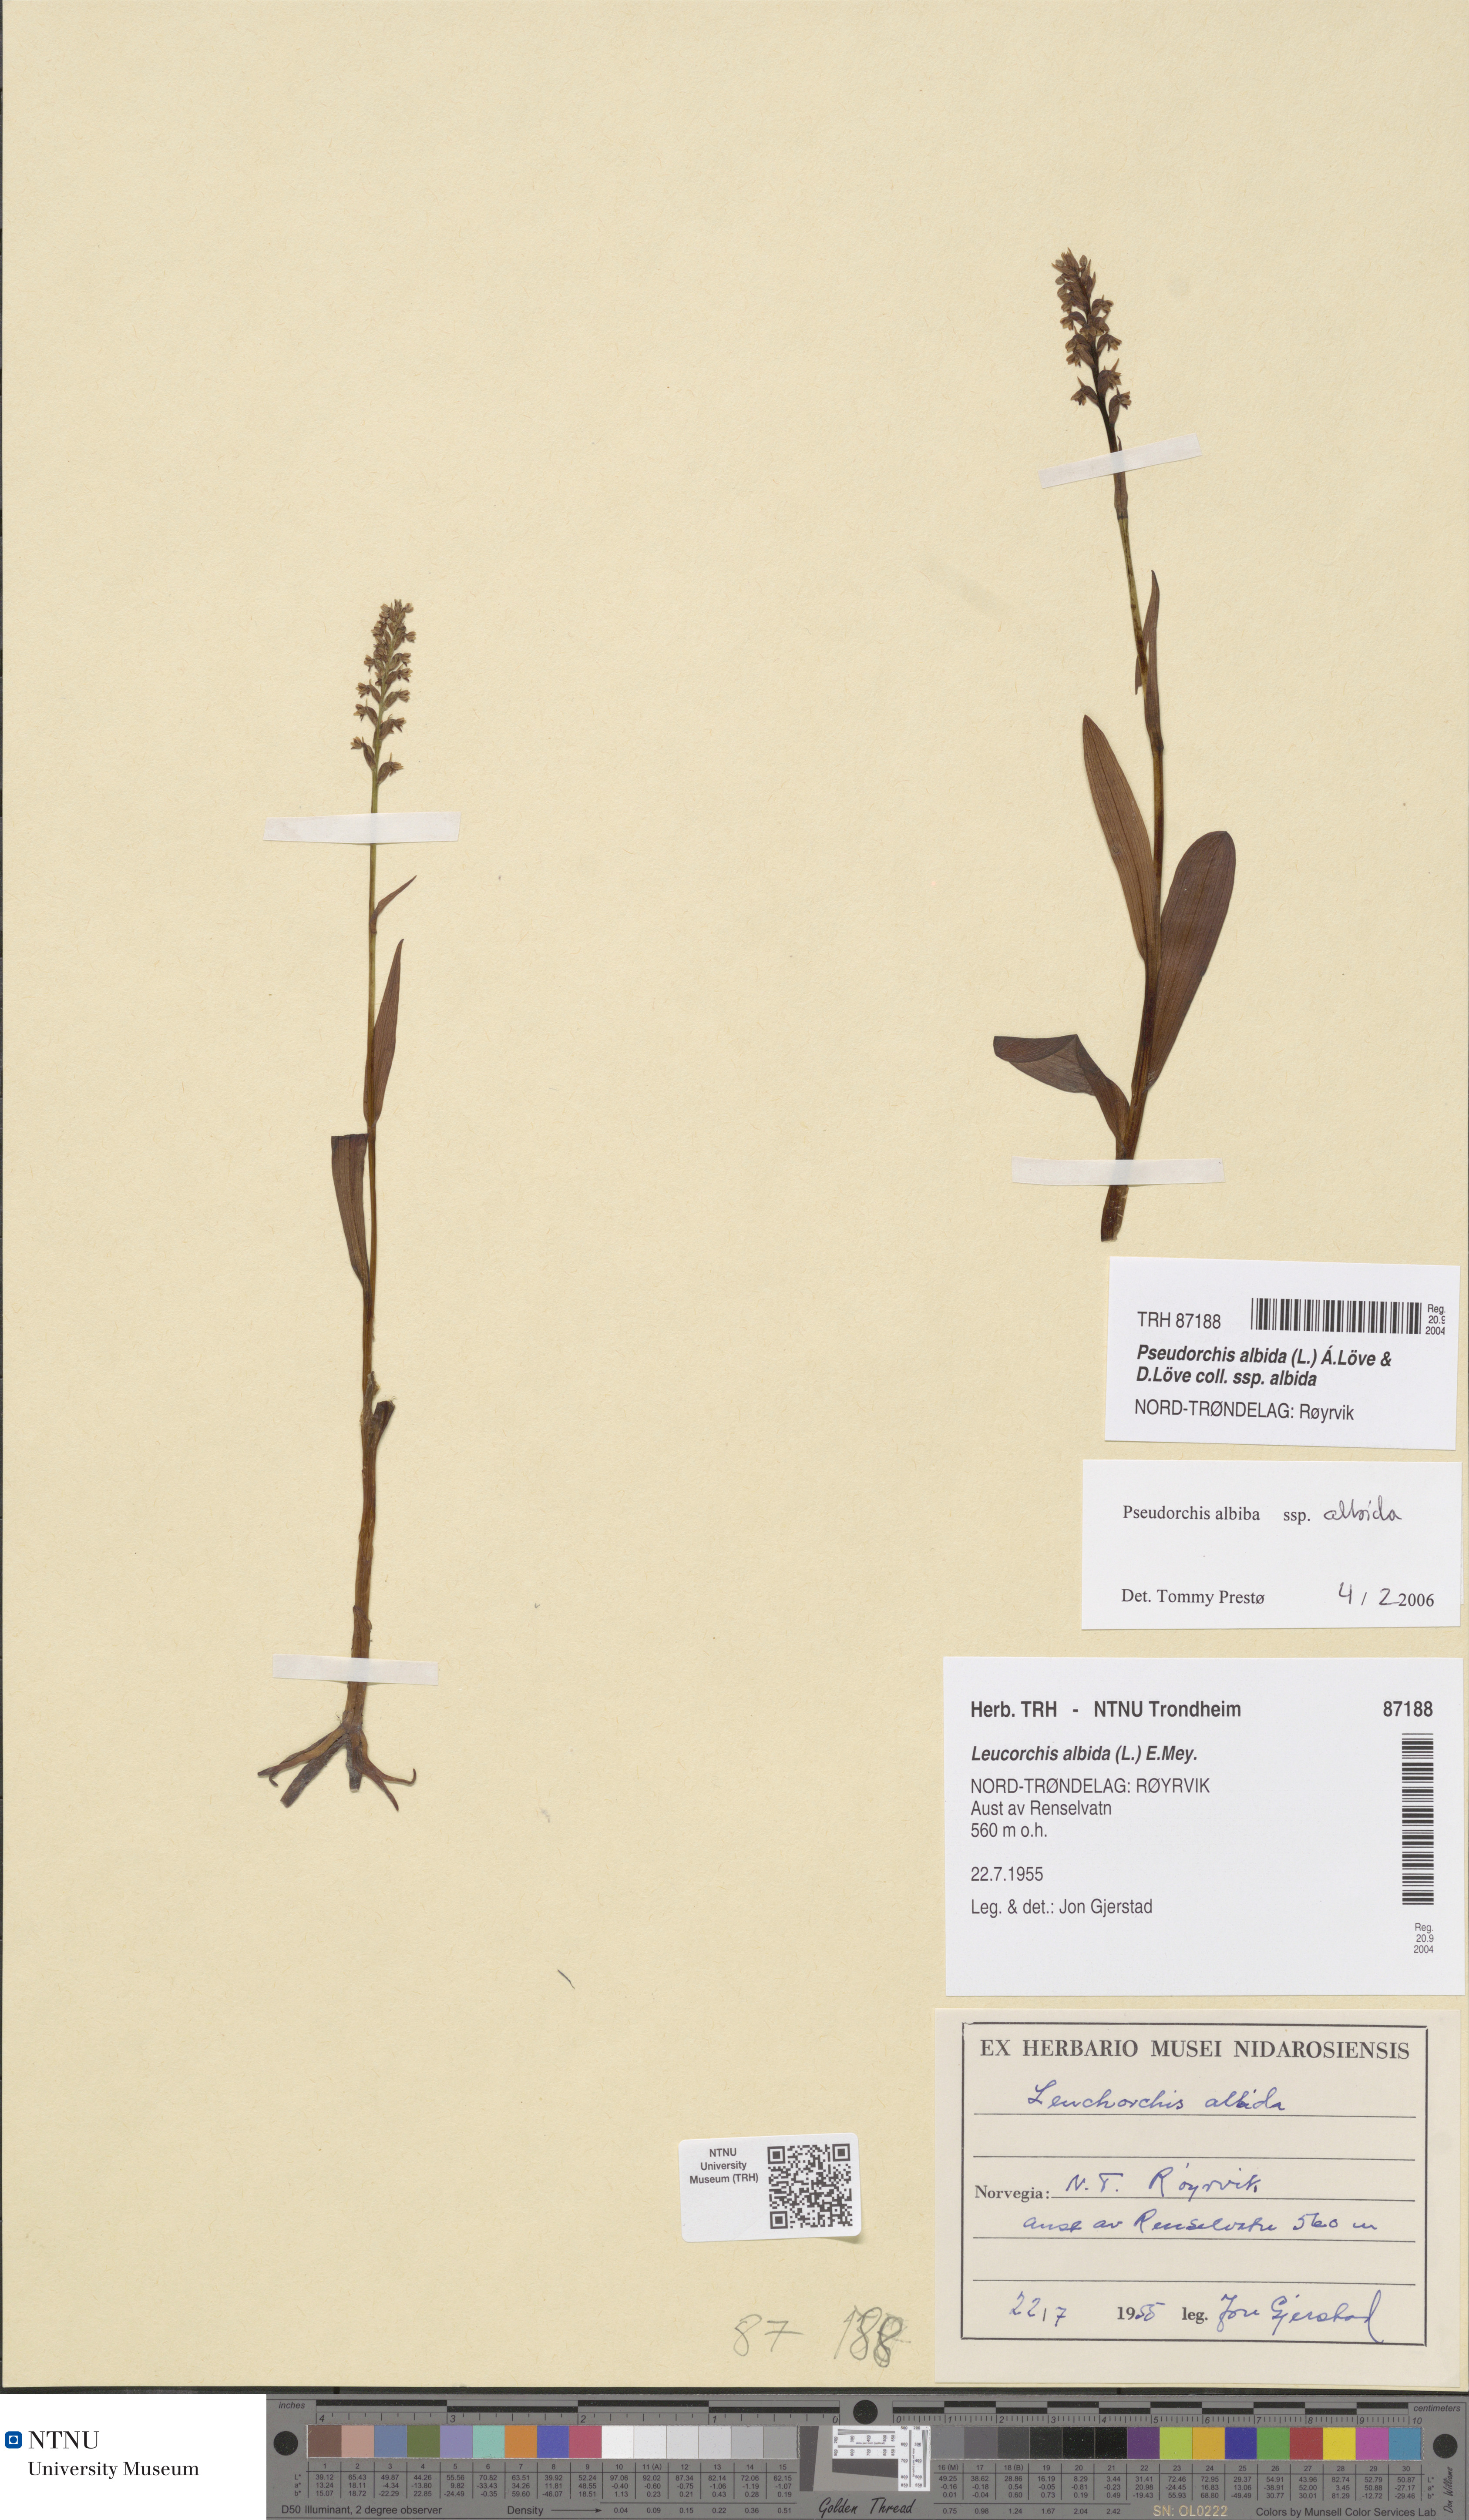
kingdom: Plantae
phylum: Tracheophyta
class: Liliopsida
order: Asparagales
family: Orchidaceae
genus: Pseudorchis
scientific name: Pseudorchis albida
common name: Small-white orchid
